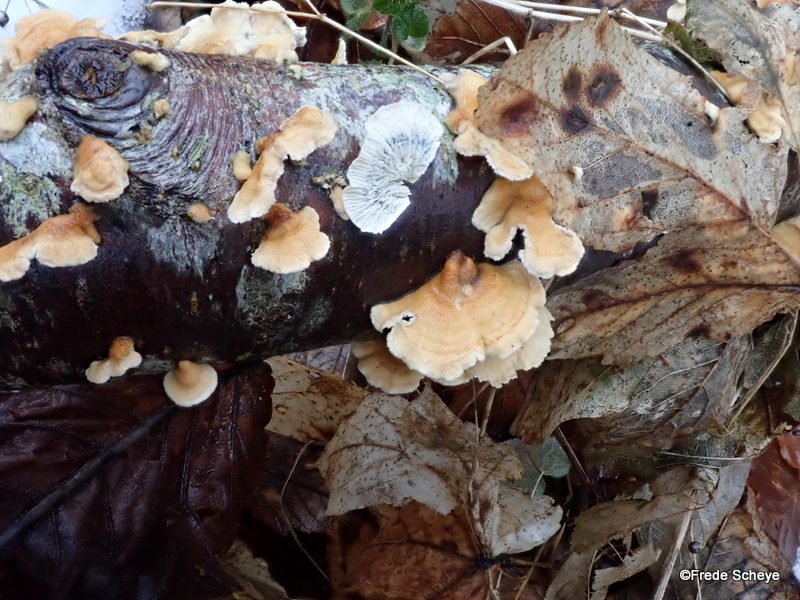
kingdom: Fungi
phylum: Basidiomycota
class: Agaricomycetes
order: Amylocorticiales
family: Amylocorticiaceae
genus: Plicaturopsis
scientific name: Plicaturopsis crispa
